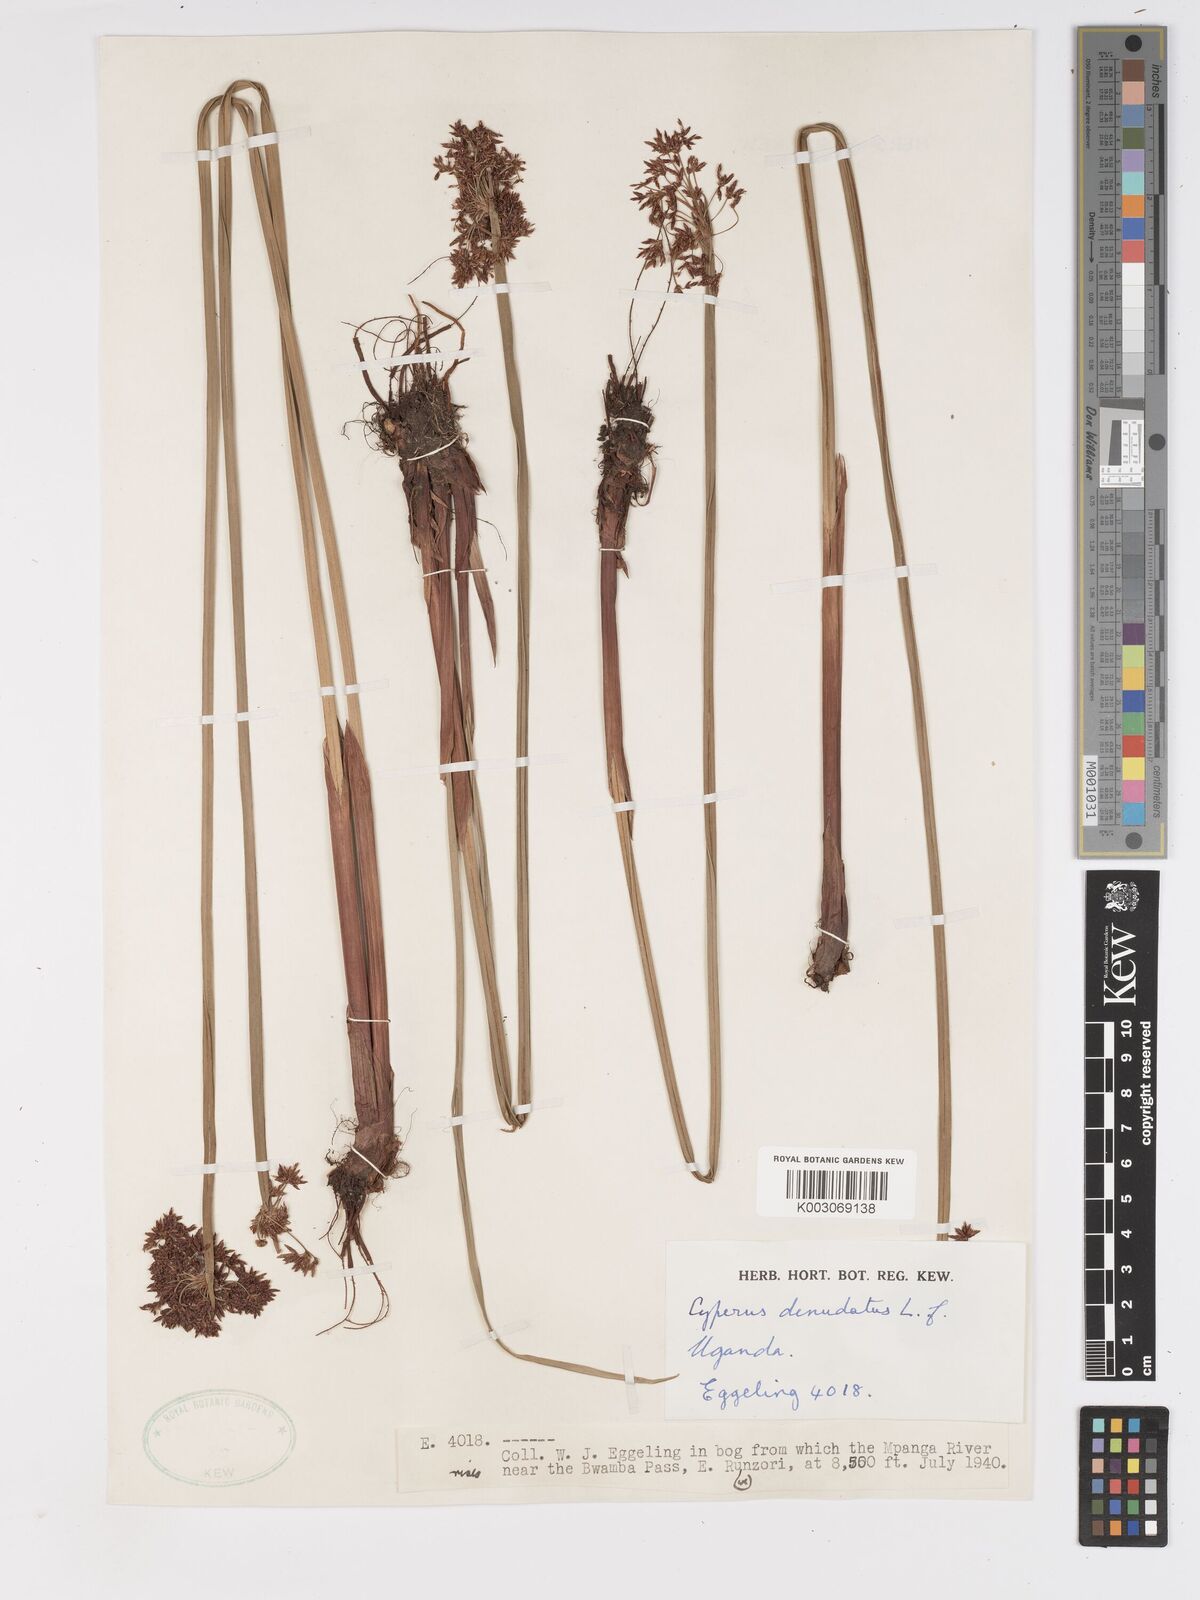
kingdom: Plantae
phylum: Tracheophyta
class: Liliopsida
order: Poales
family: Cyperaceae
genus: Cyperus
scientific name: Cyperus denudatus
